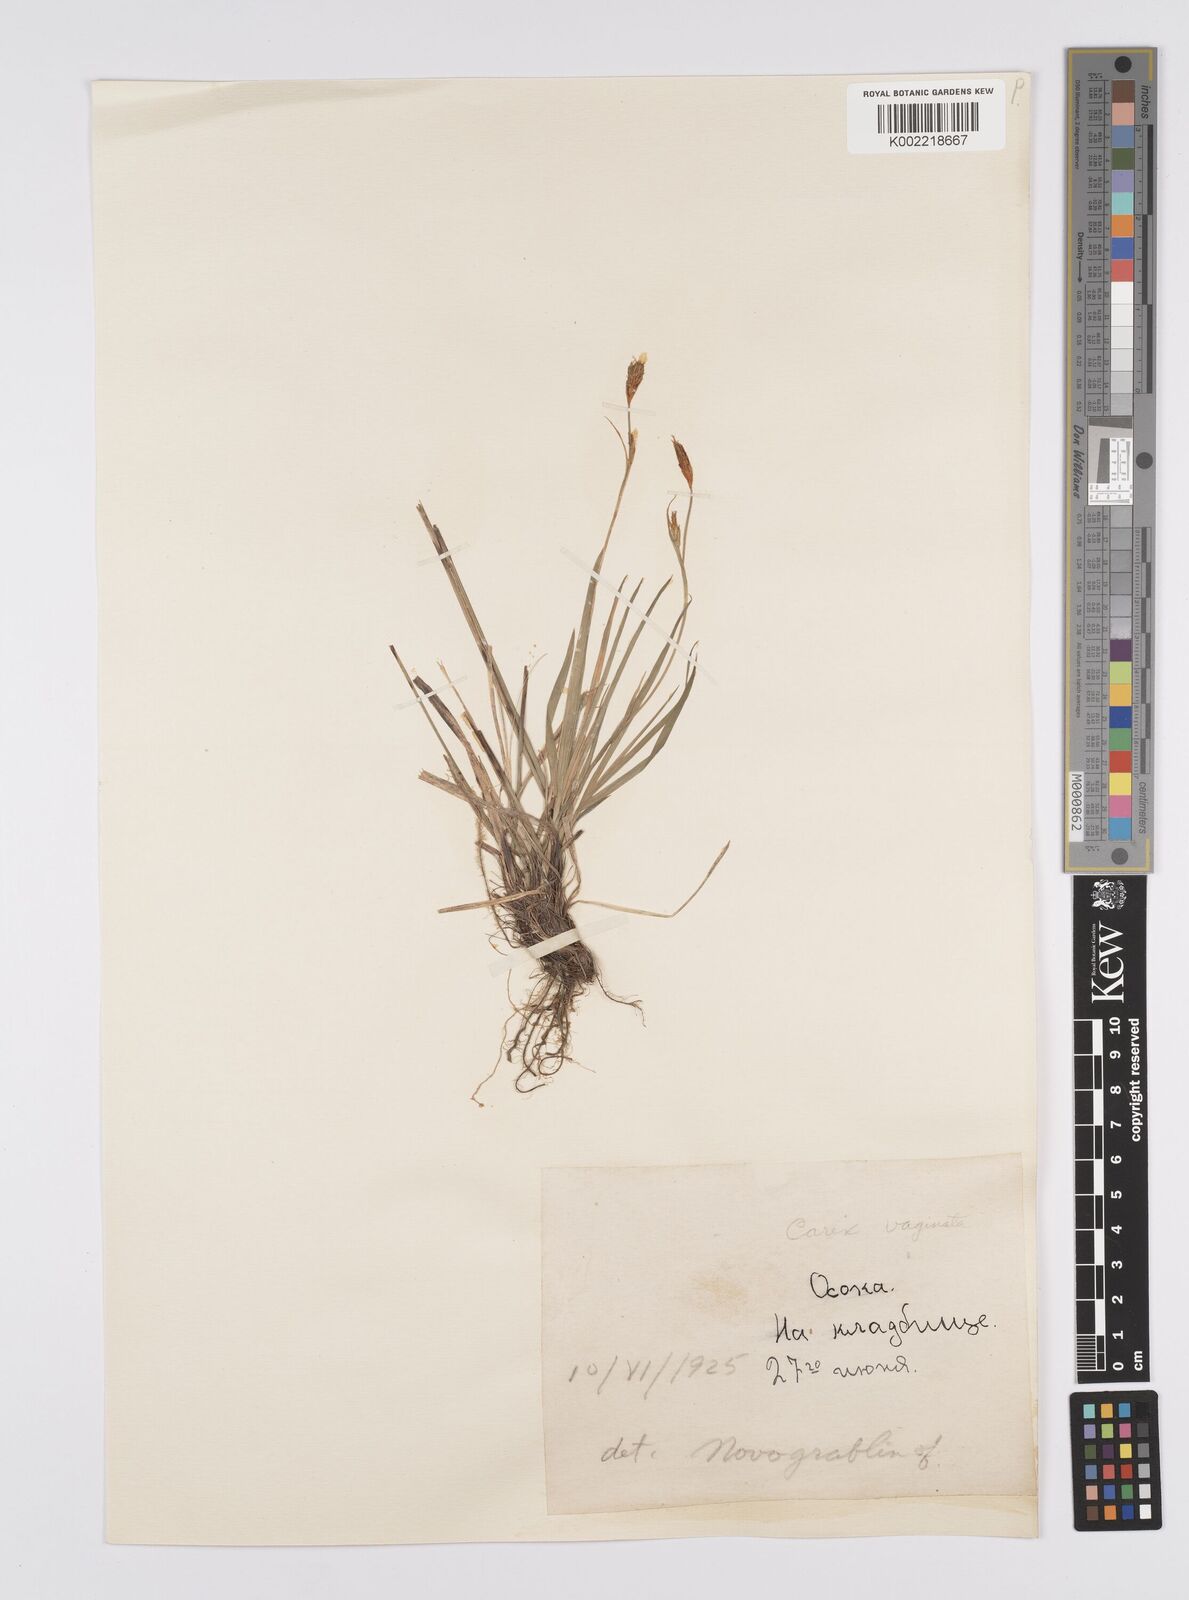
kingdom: Plantae
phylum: Tracheophyta
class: Liliopsida
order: Poales
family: Cyperaceae
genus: Carex
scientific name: Carex vaginata
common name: Sheathed sedge
